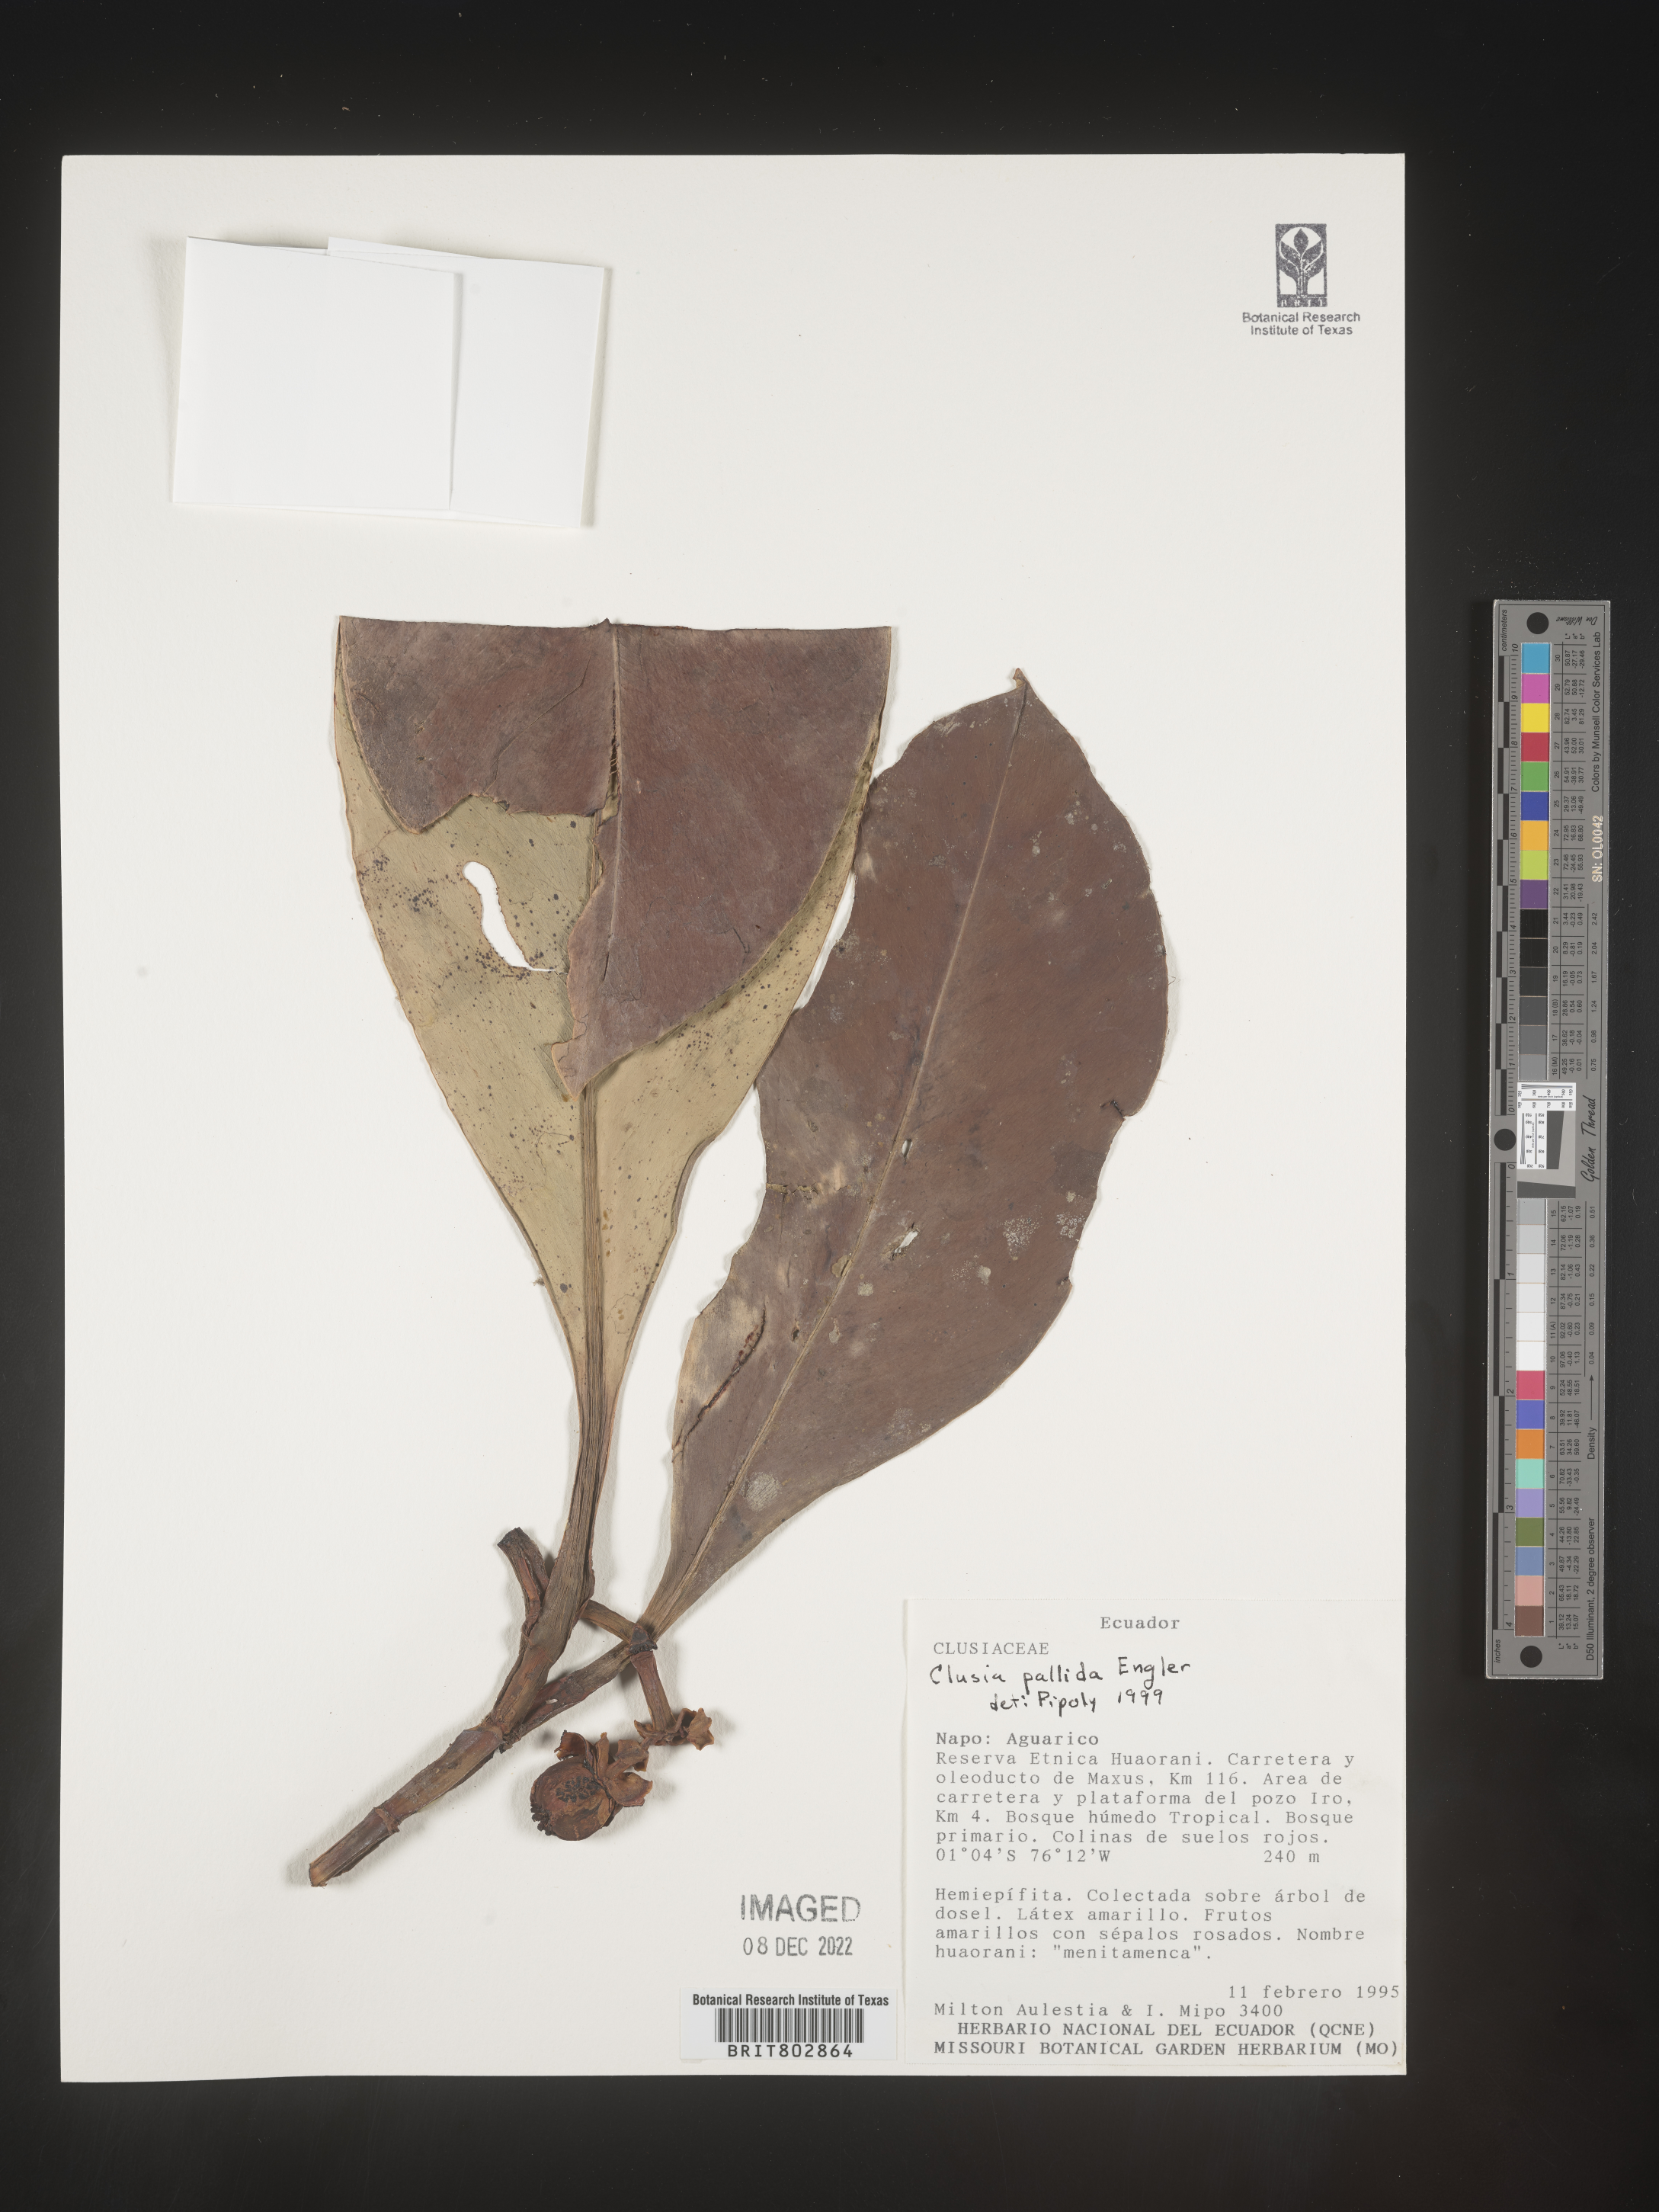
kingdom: Plantae
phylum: Tracheophyta
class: Magnoliopsida
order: Malpighiales
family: Clusiaceae
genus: Clusia
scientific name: Clusia
